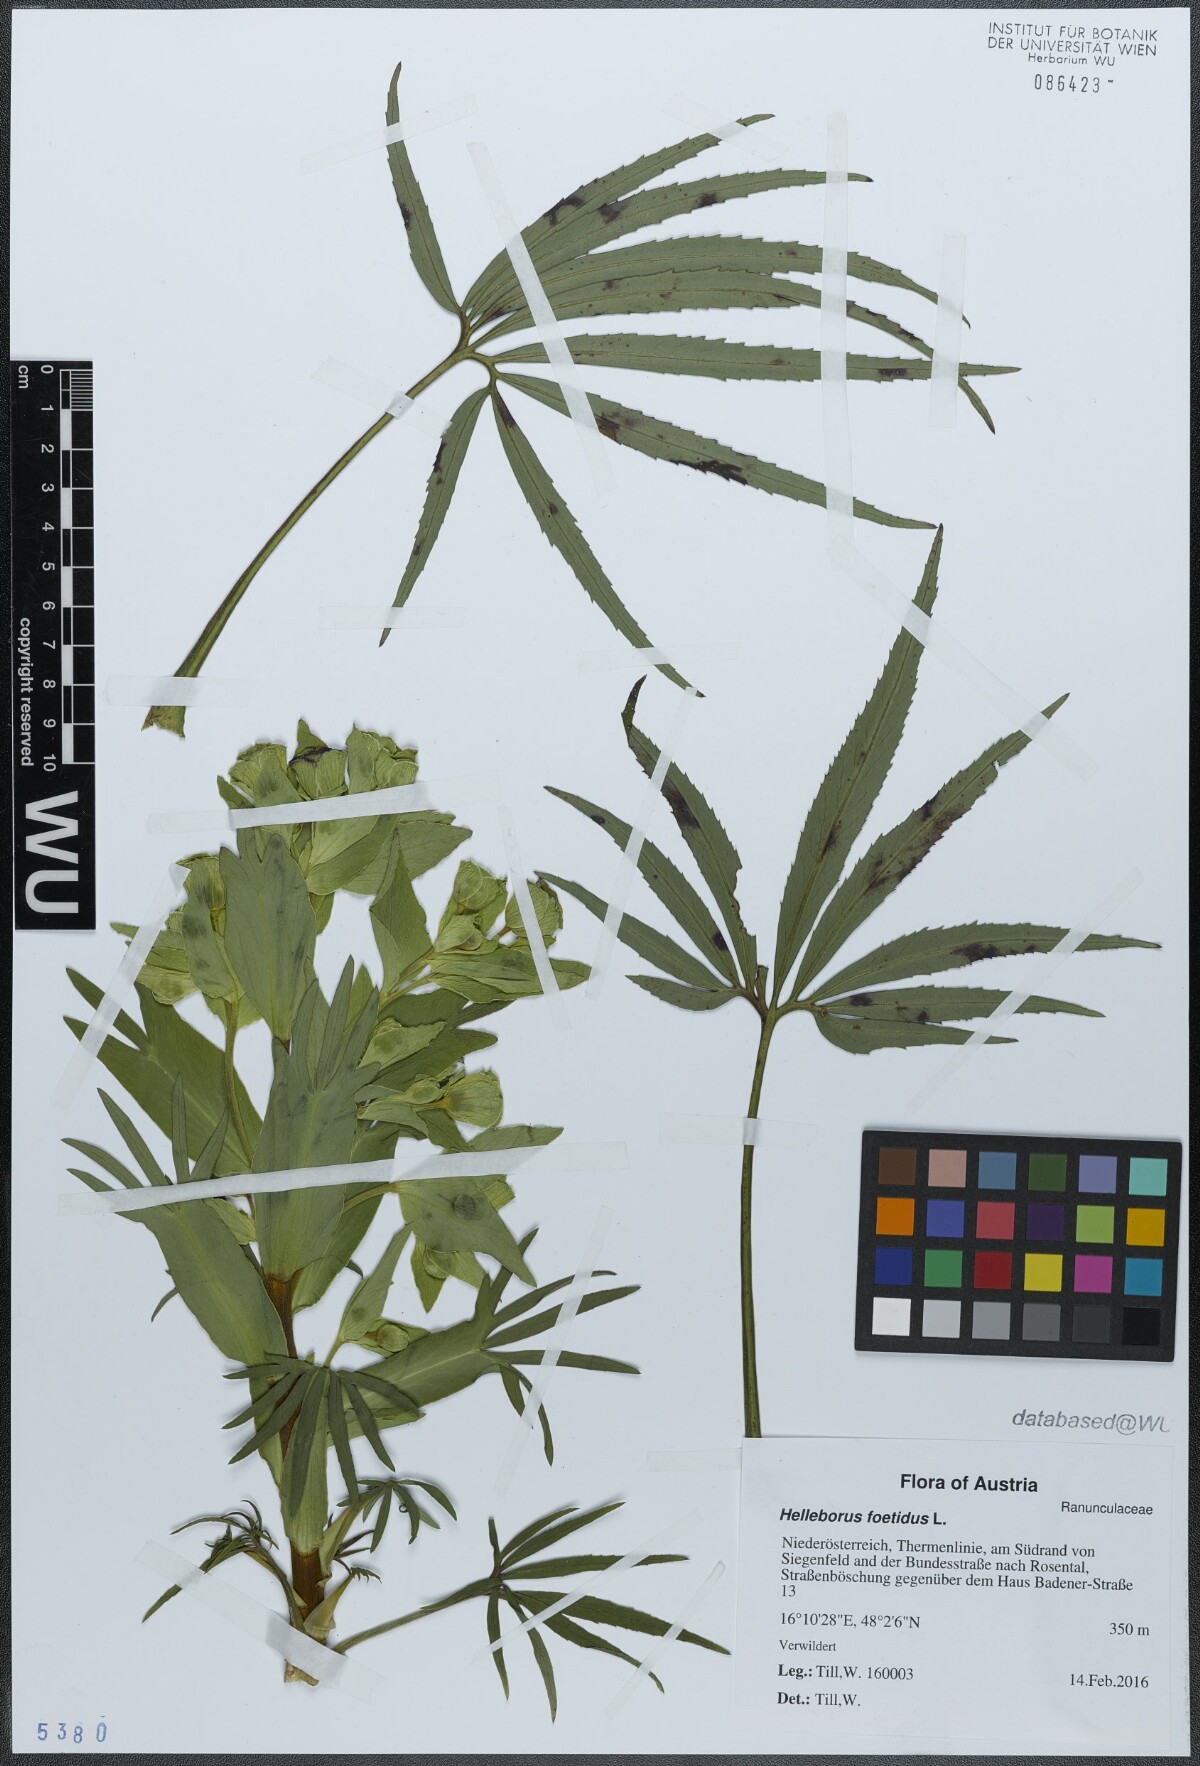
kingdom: Plantae
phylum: Tracheophyta
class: Magnoliopsida
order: Ranunculales
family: Ranunculaceae
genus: Helleborus
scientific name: Helleborus foetidus
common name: Stinking hellebore
